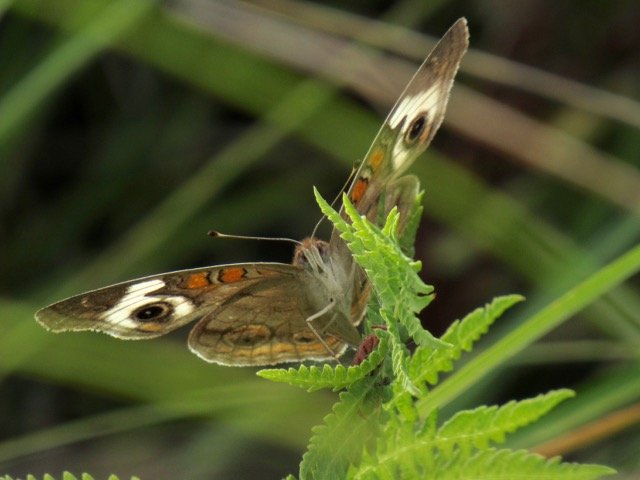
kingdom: Animalia
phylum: Arthropoda
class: Insecta
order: Lepidoptera
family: Nymphalidae
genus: Junonia
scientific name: Junonia coenia
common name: Common Buckeye
